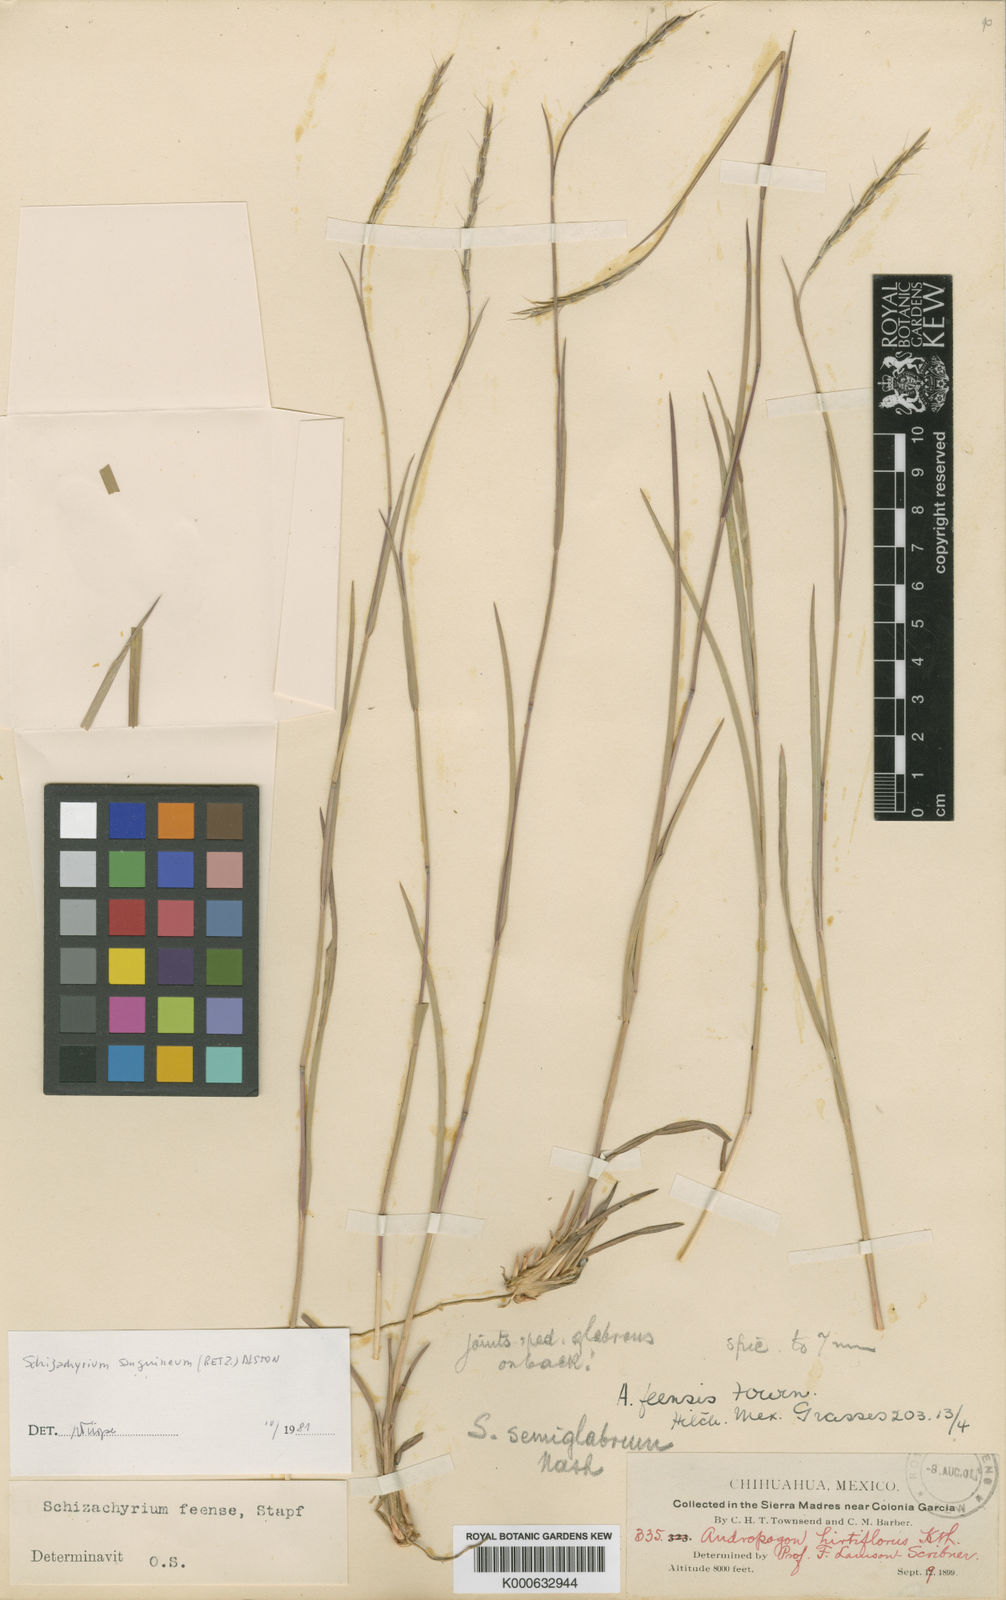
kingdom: Plantae
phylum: Tracheophyta
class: Liliopsida
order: Poales
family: Poaceae
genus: Schizachyrium
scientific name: Schizachyrium sanguineum
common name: Crimson bluestem
